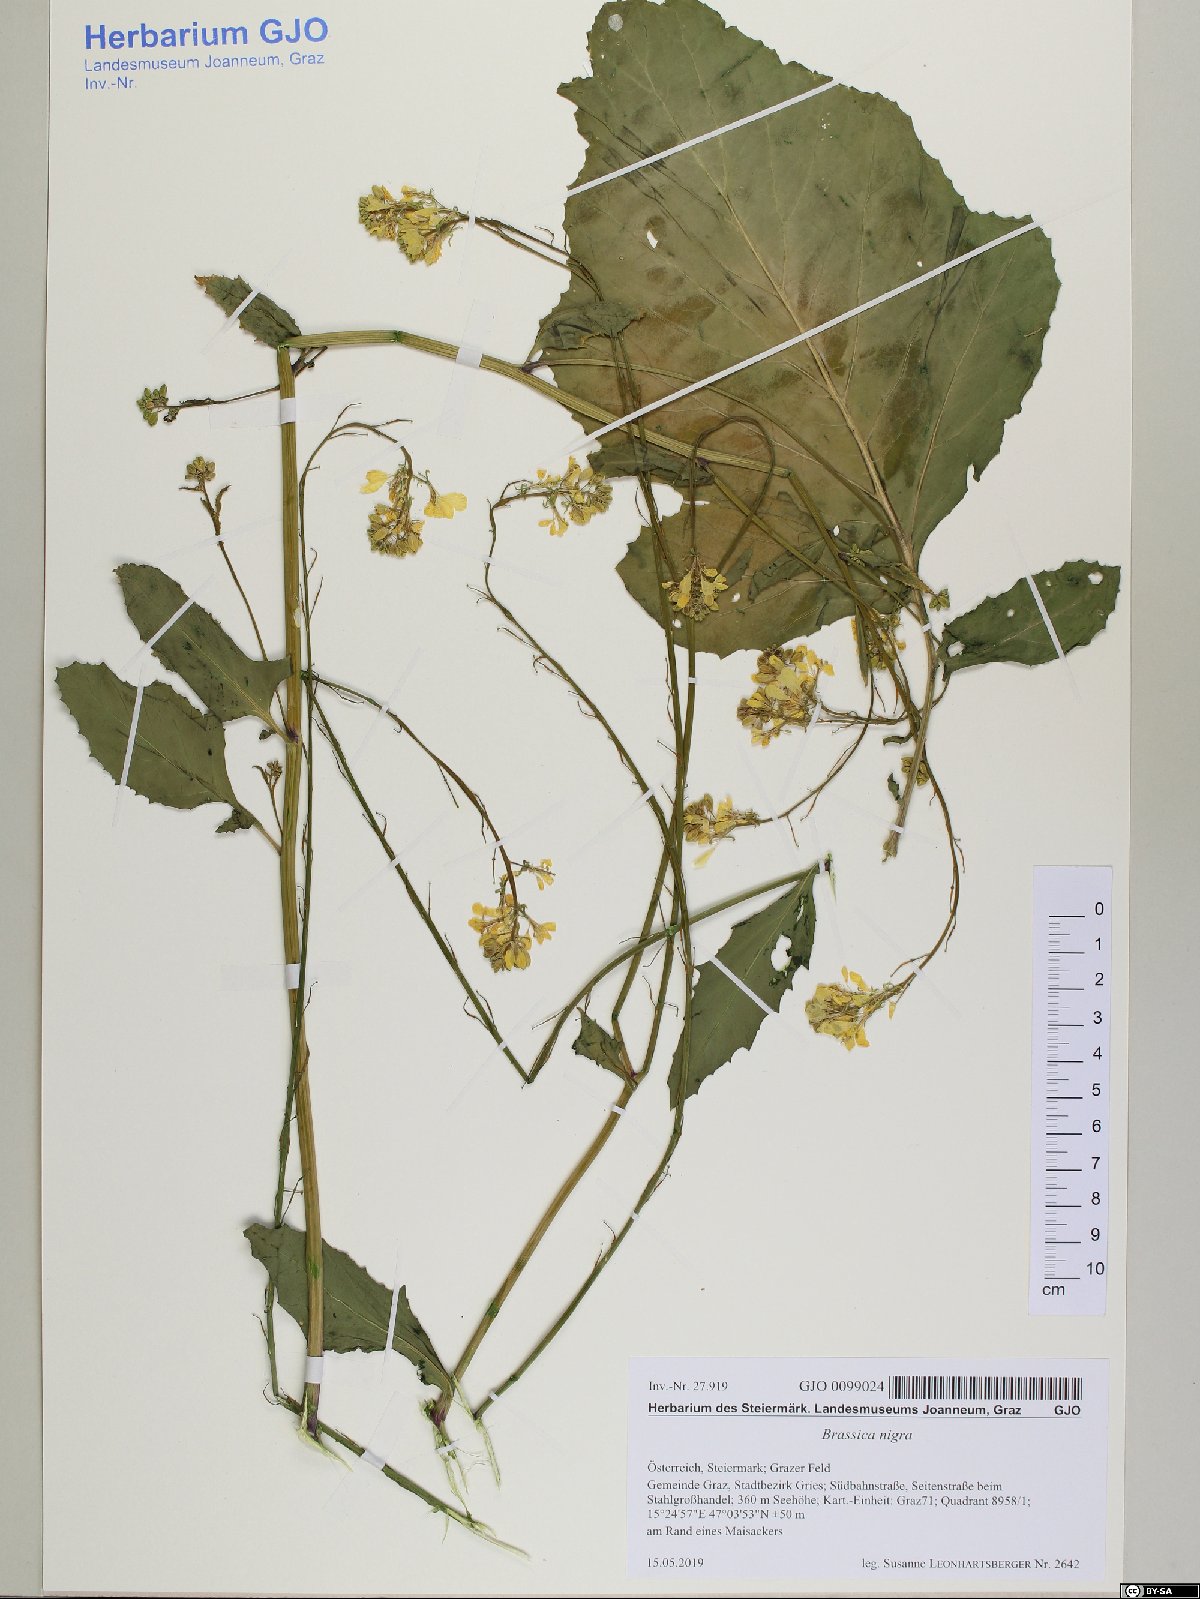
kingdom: Plantae
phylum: Tracheophyta
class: Magnoliopsida
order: Brassicales
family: Brassicaceae
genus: Brassica
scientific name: Brassica nigra
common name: Black mustard
